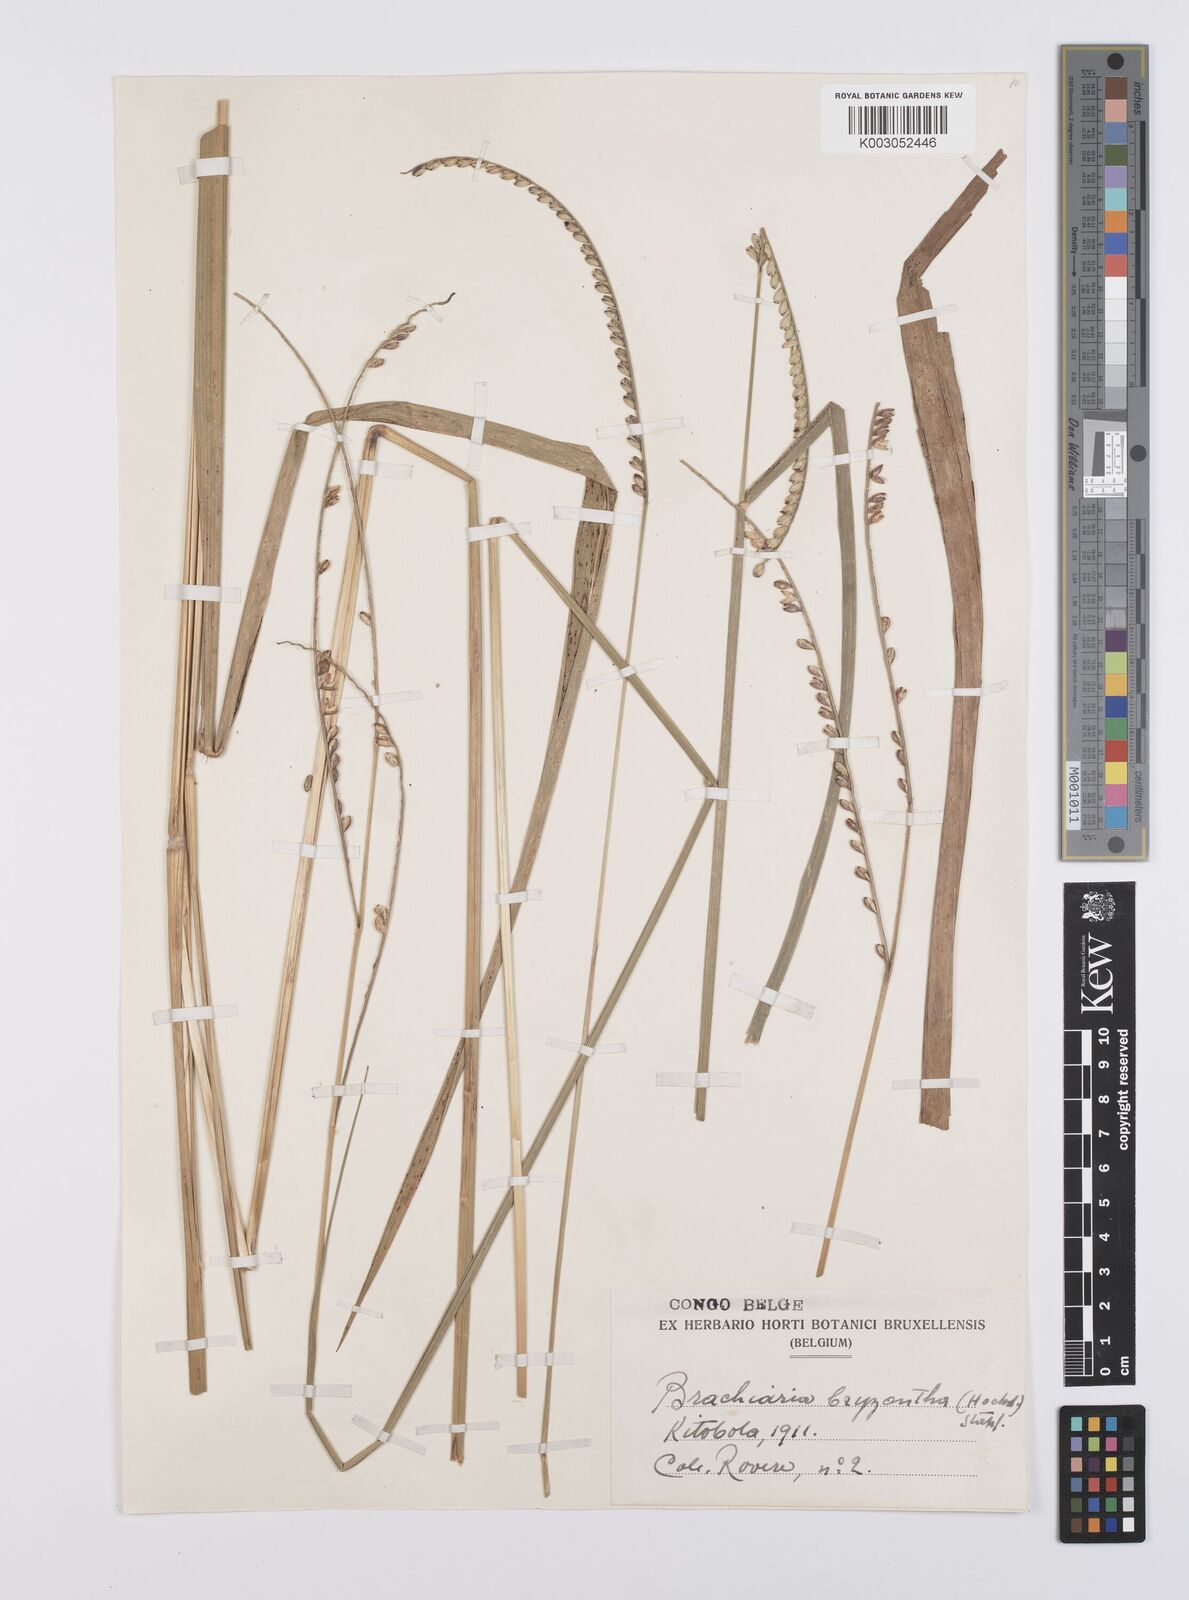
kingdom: Plantae
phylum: Tracheophyta
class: Liliopsida
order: Poales
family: Poaceae
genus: Urochloa
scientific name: Urochloa brizantha
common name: Palisade signalgrass
